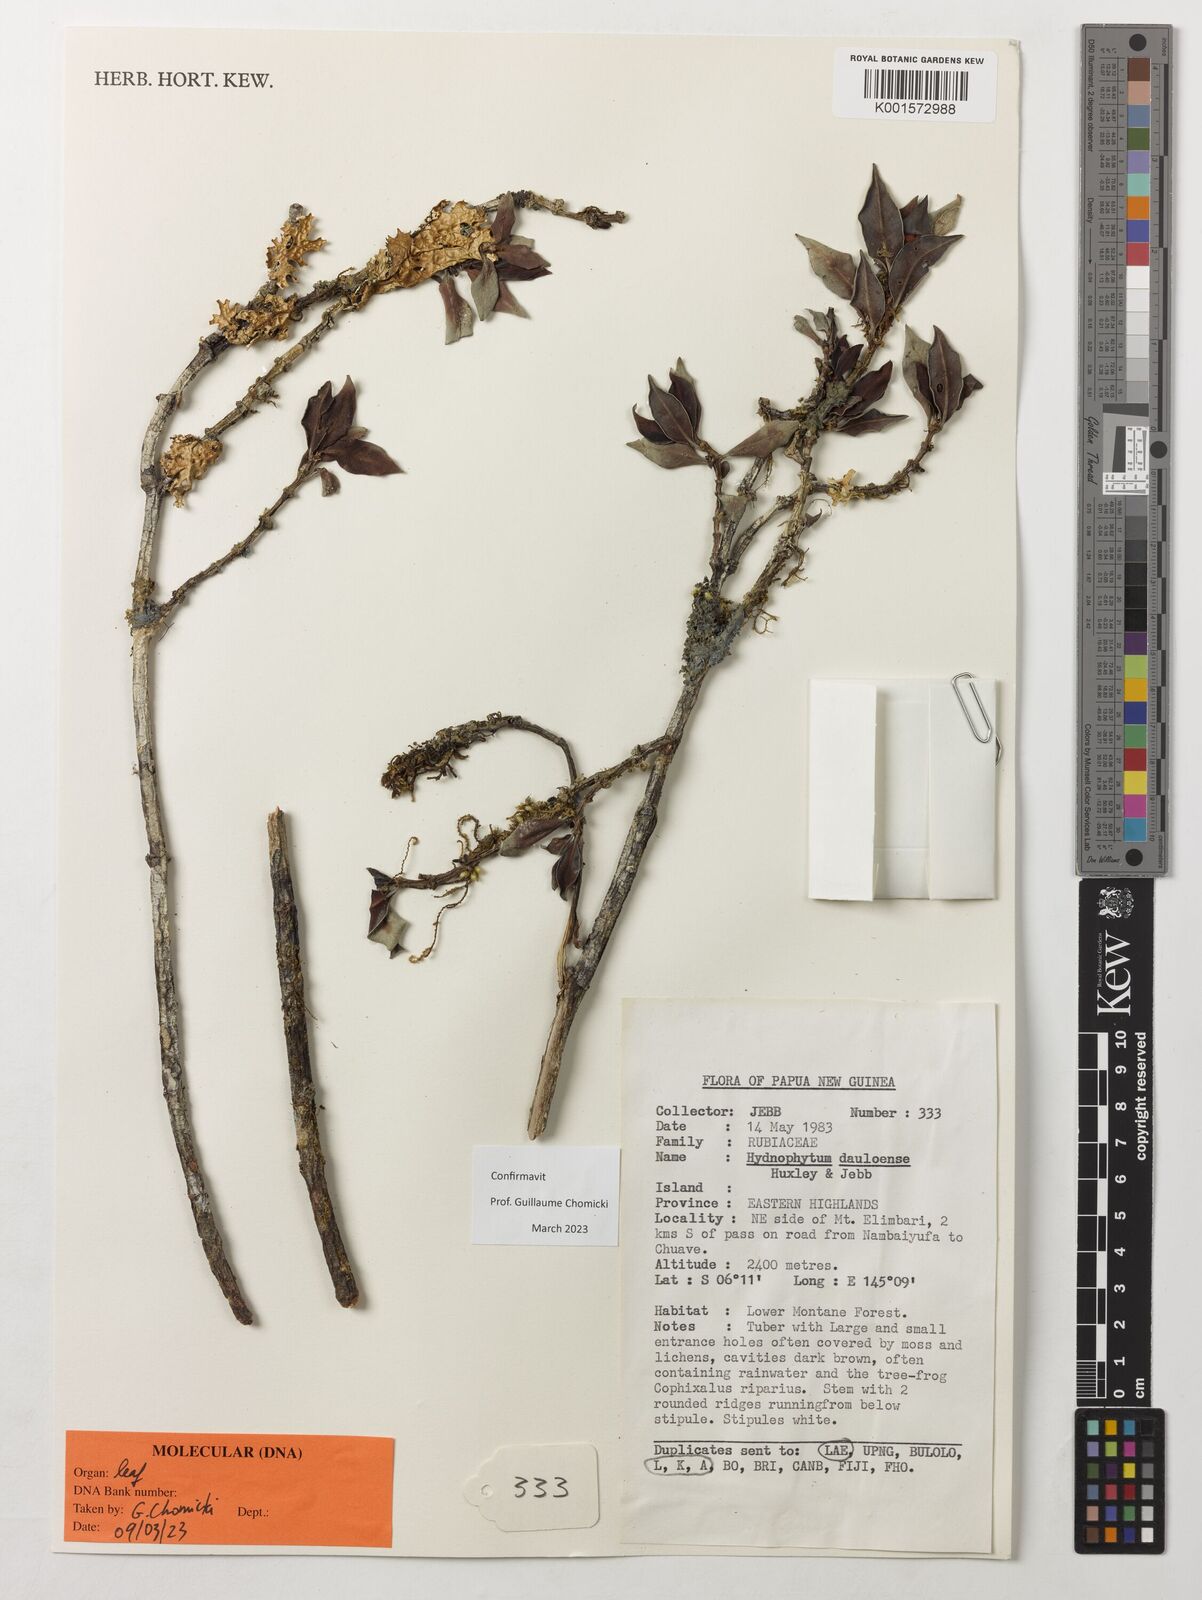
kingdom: Plantae
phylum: Tracheophyta
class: Magnoliopsida
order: Gentianales
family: Rubiaceae
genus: Hydnophytum
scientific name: Hydnophytum dauloense
